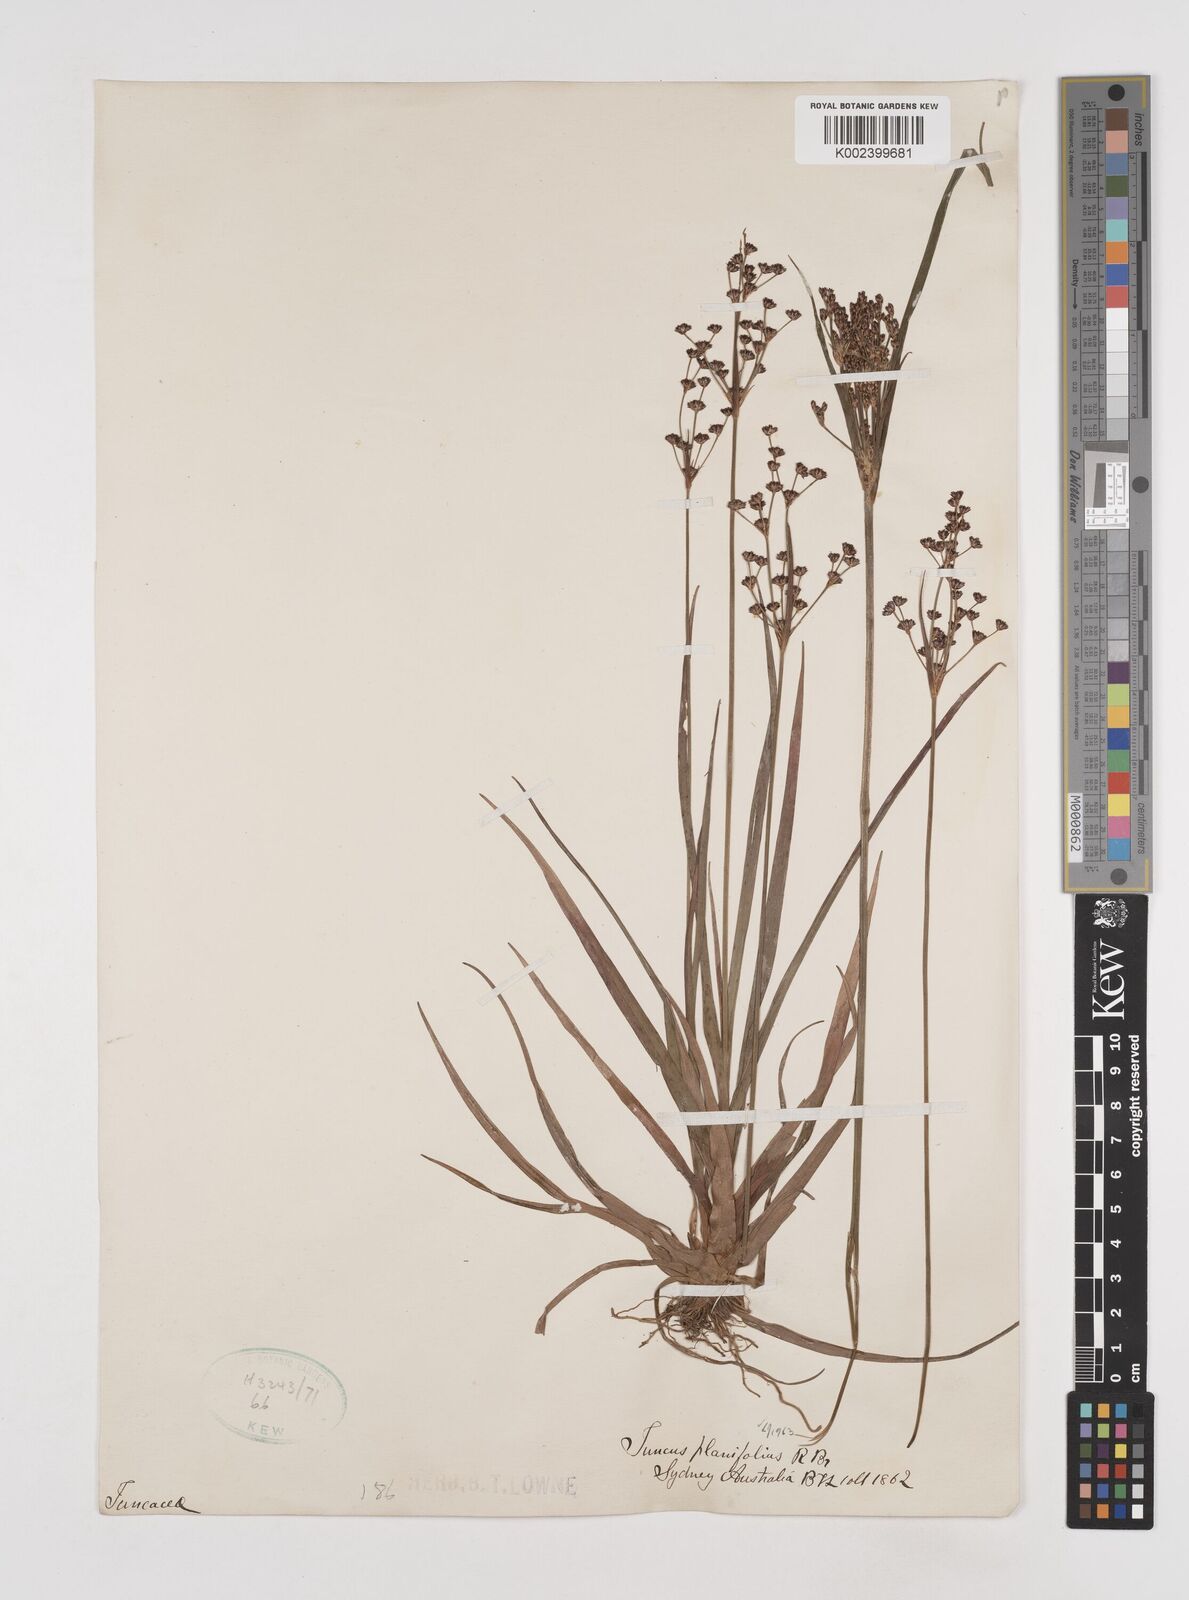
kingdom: Plantae
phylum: Tracheophyta
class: Liliopsida
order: Poales
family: Juncaceae
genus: Juncus
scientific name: Juncus planifolius
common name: Broadleaf rush
